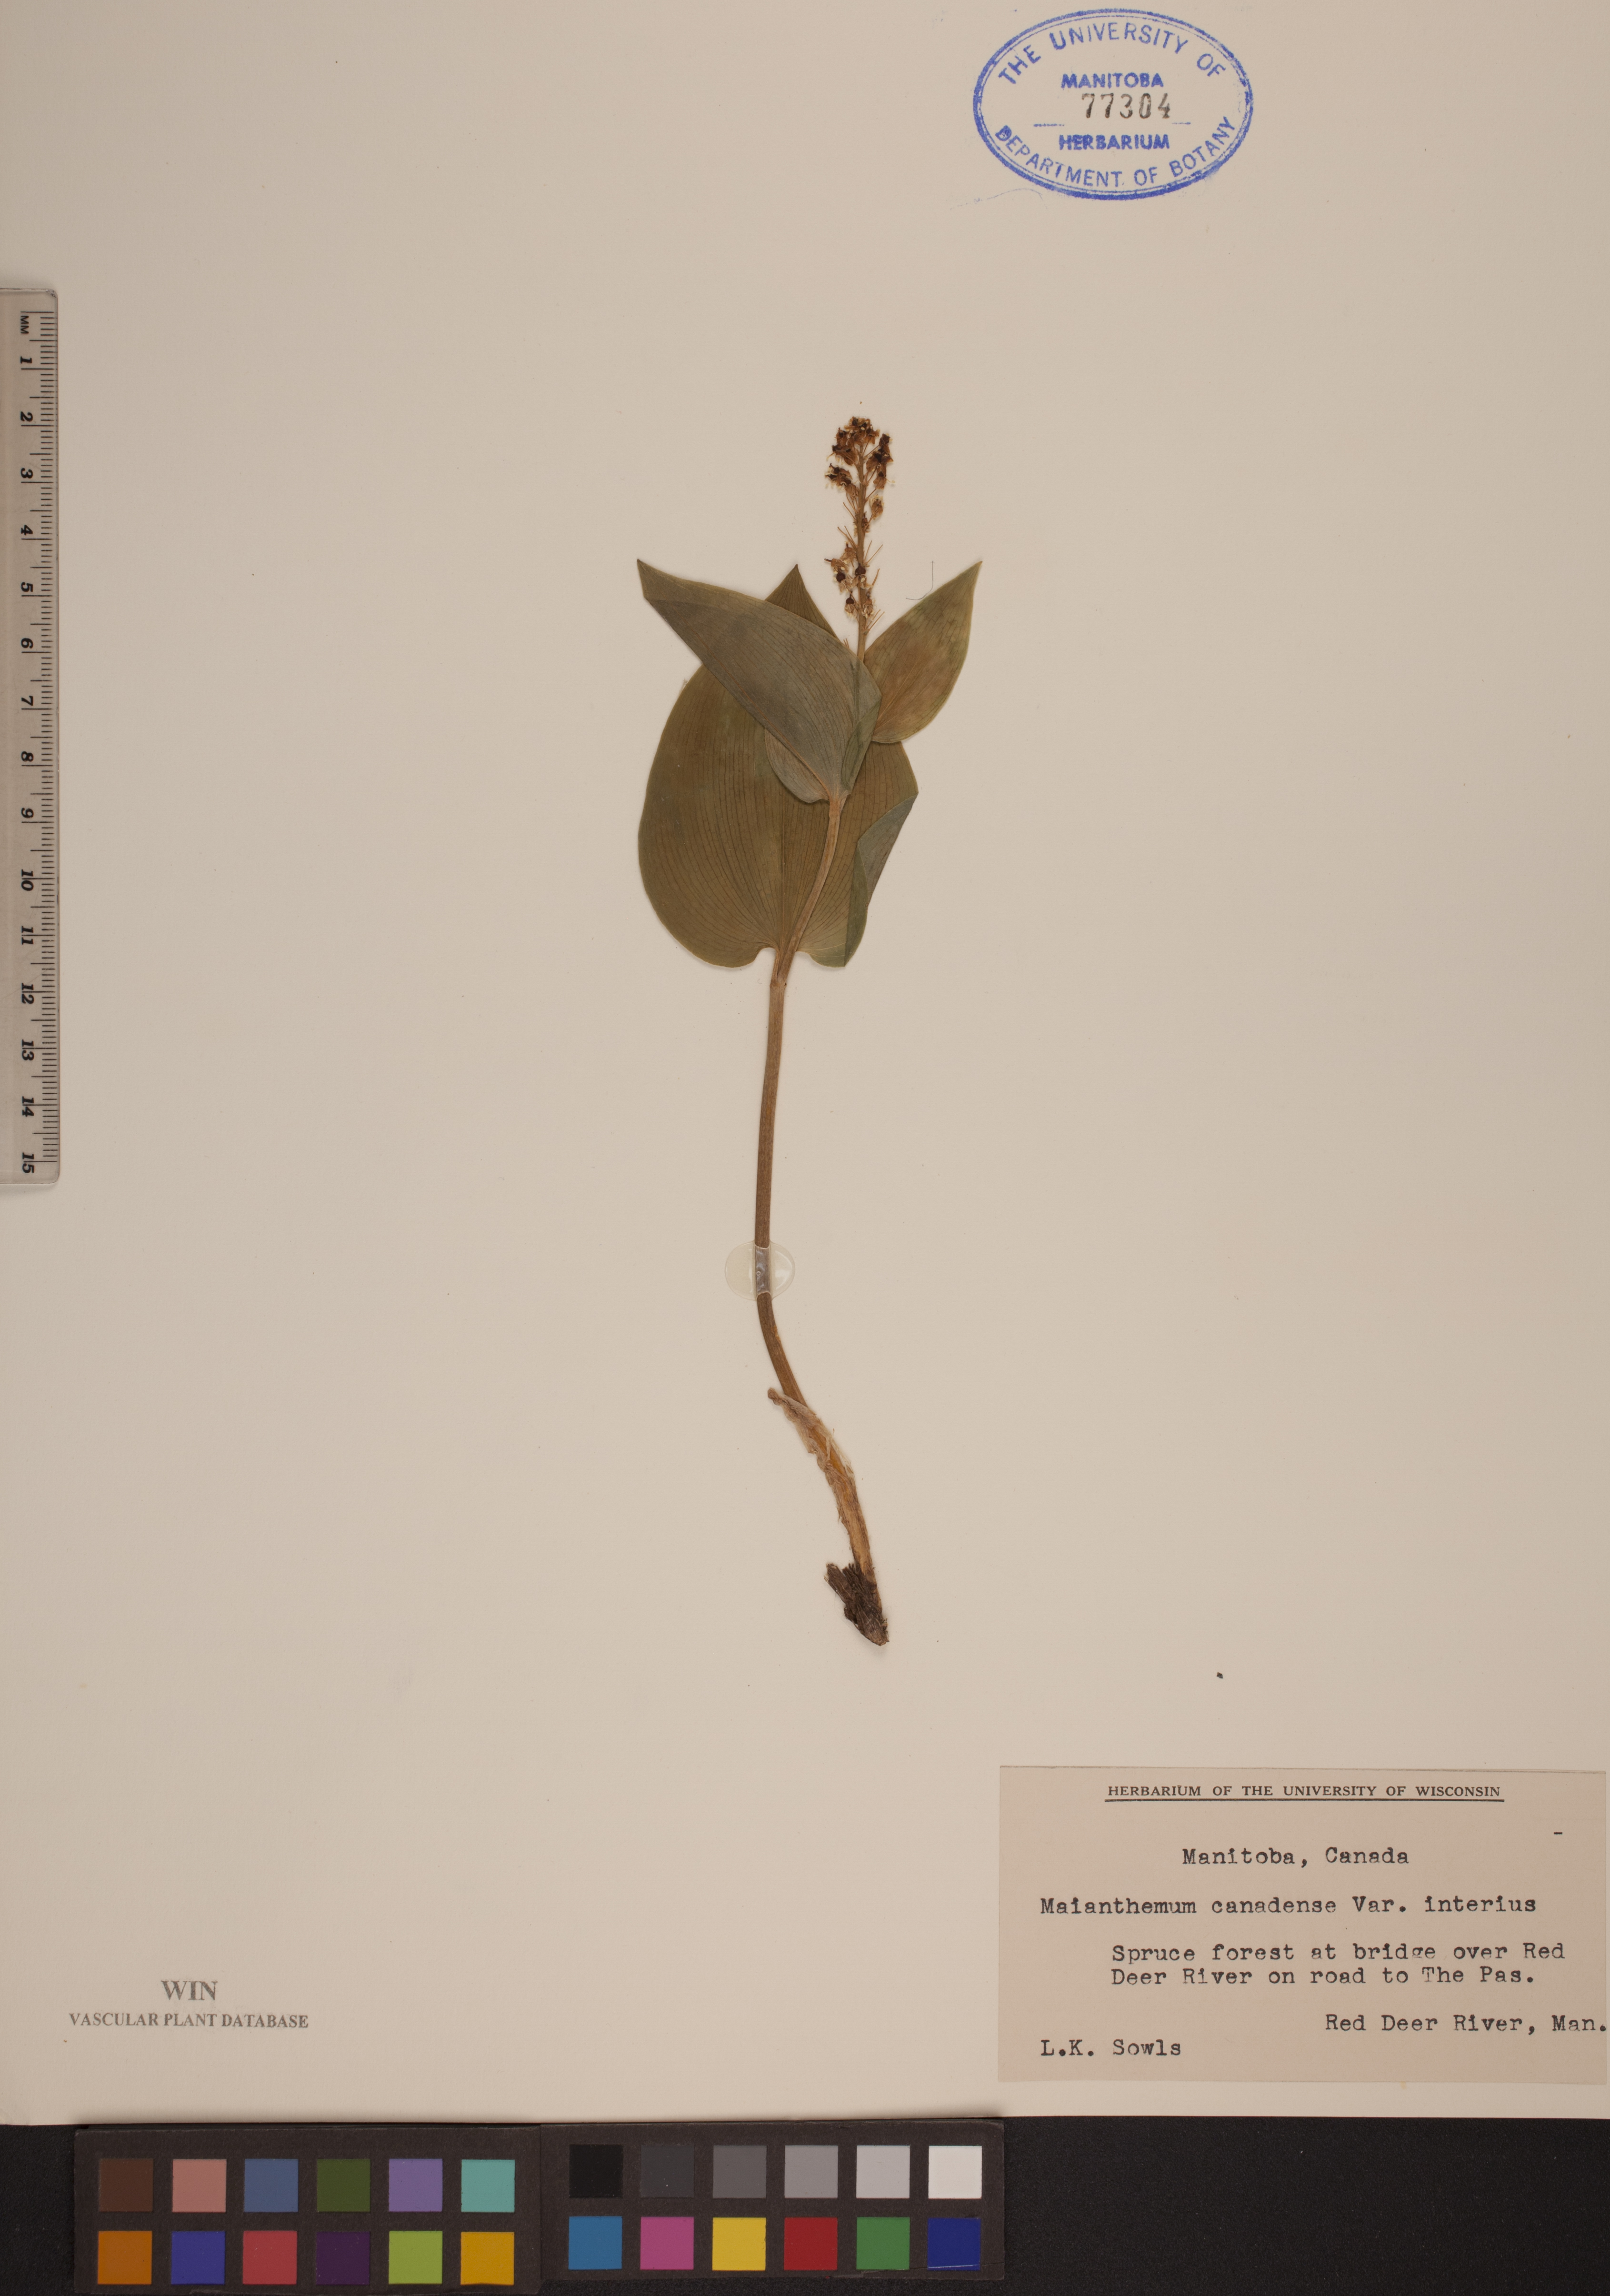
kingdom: Plantae
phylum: Tracheophyta
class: Liliopsida
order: Asparagales
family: Asparagaceae
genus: Maianthemum
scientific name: Maianthemum canadense
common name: False lily-of-the-valley
